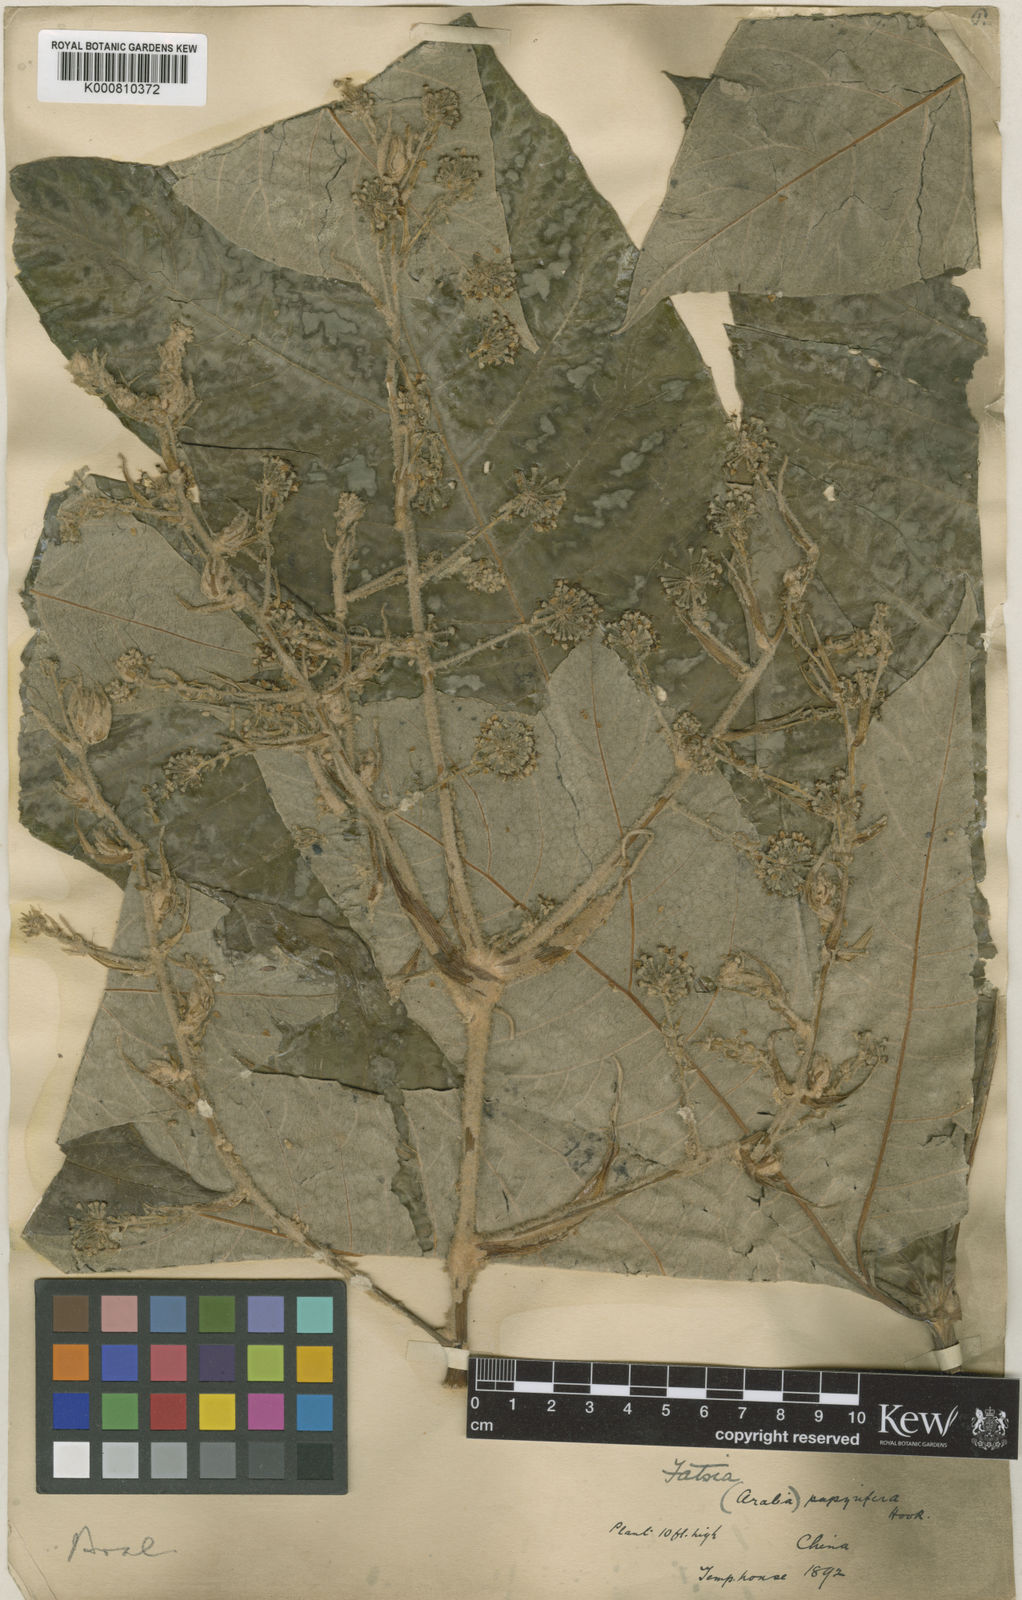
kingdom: Plantae
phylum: Tracheophyta
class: Magnoliopsida
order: Apiales
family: Araliaceae
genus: Tetrapanax
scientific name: Tetrapanax papyrifer
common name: Rice-paper plant
